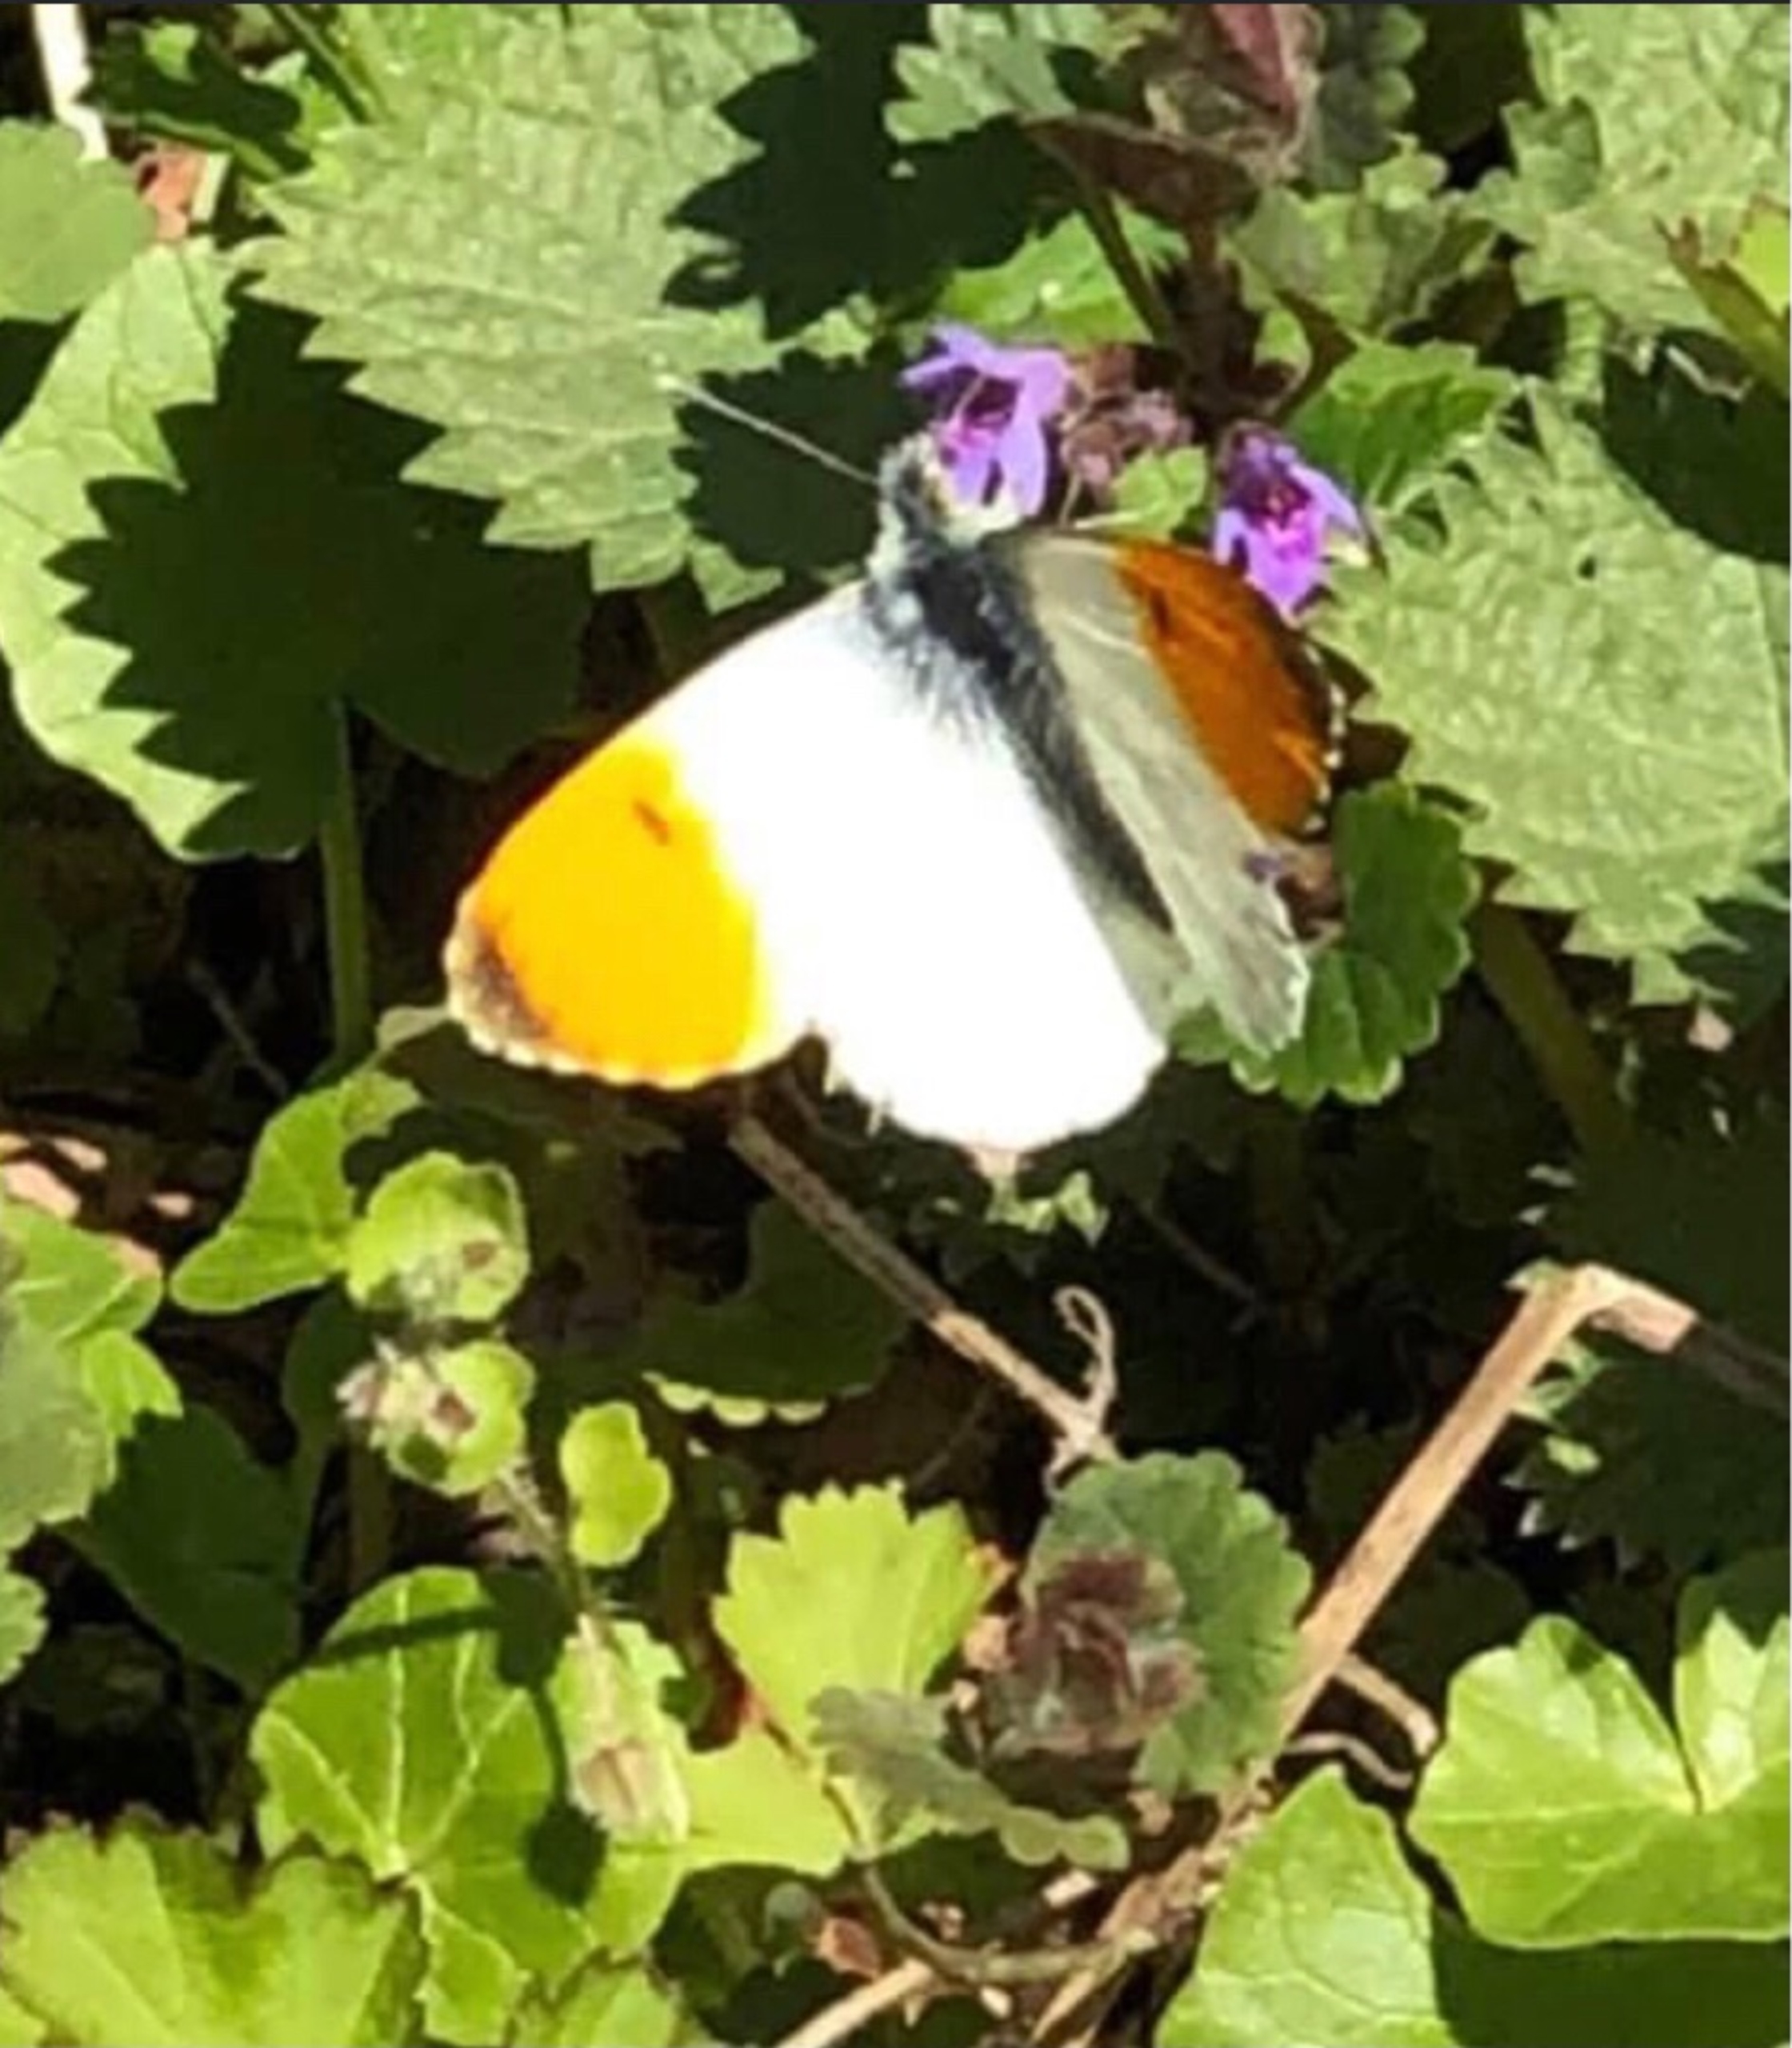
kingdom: Animalia
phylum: Arthropoda
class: Insecta
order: Lepidoptera
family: Pieridae
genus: Anthocharis
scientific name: Anthocharis cardamines
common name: Aurora
